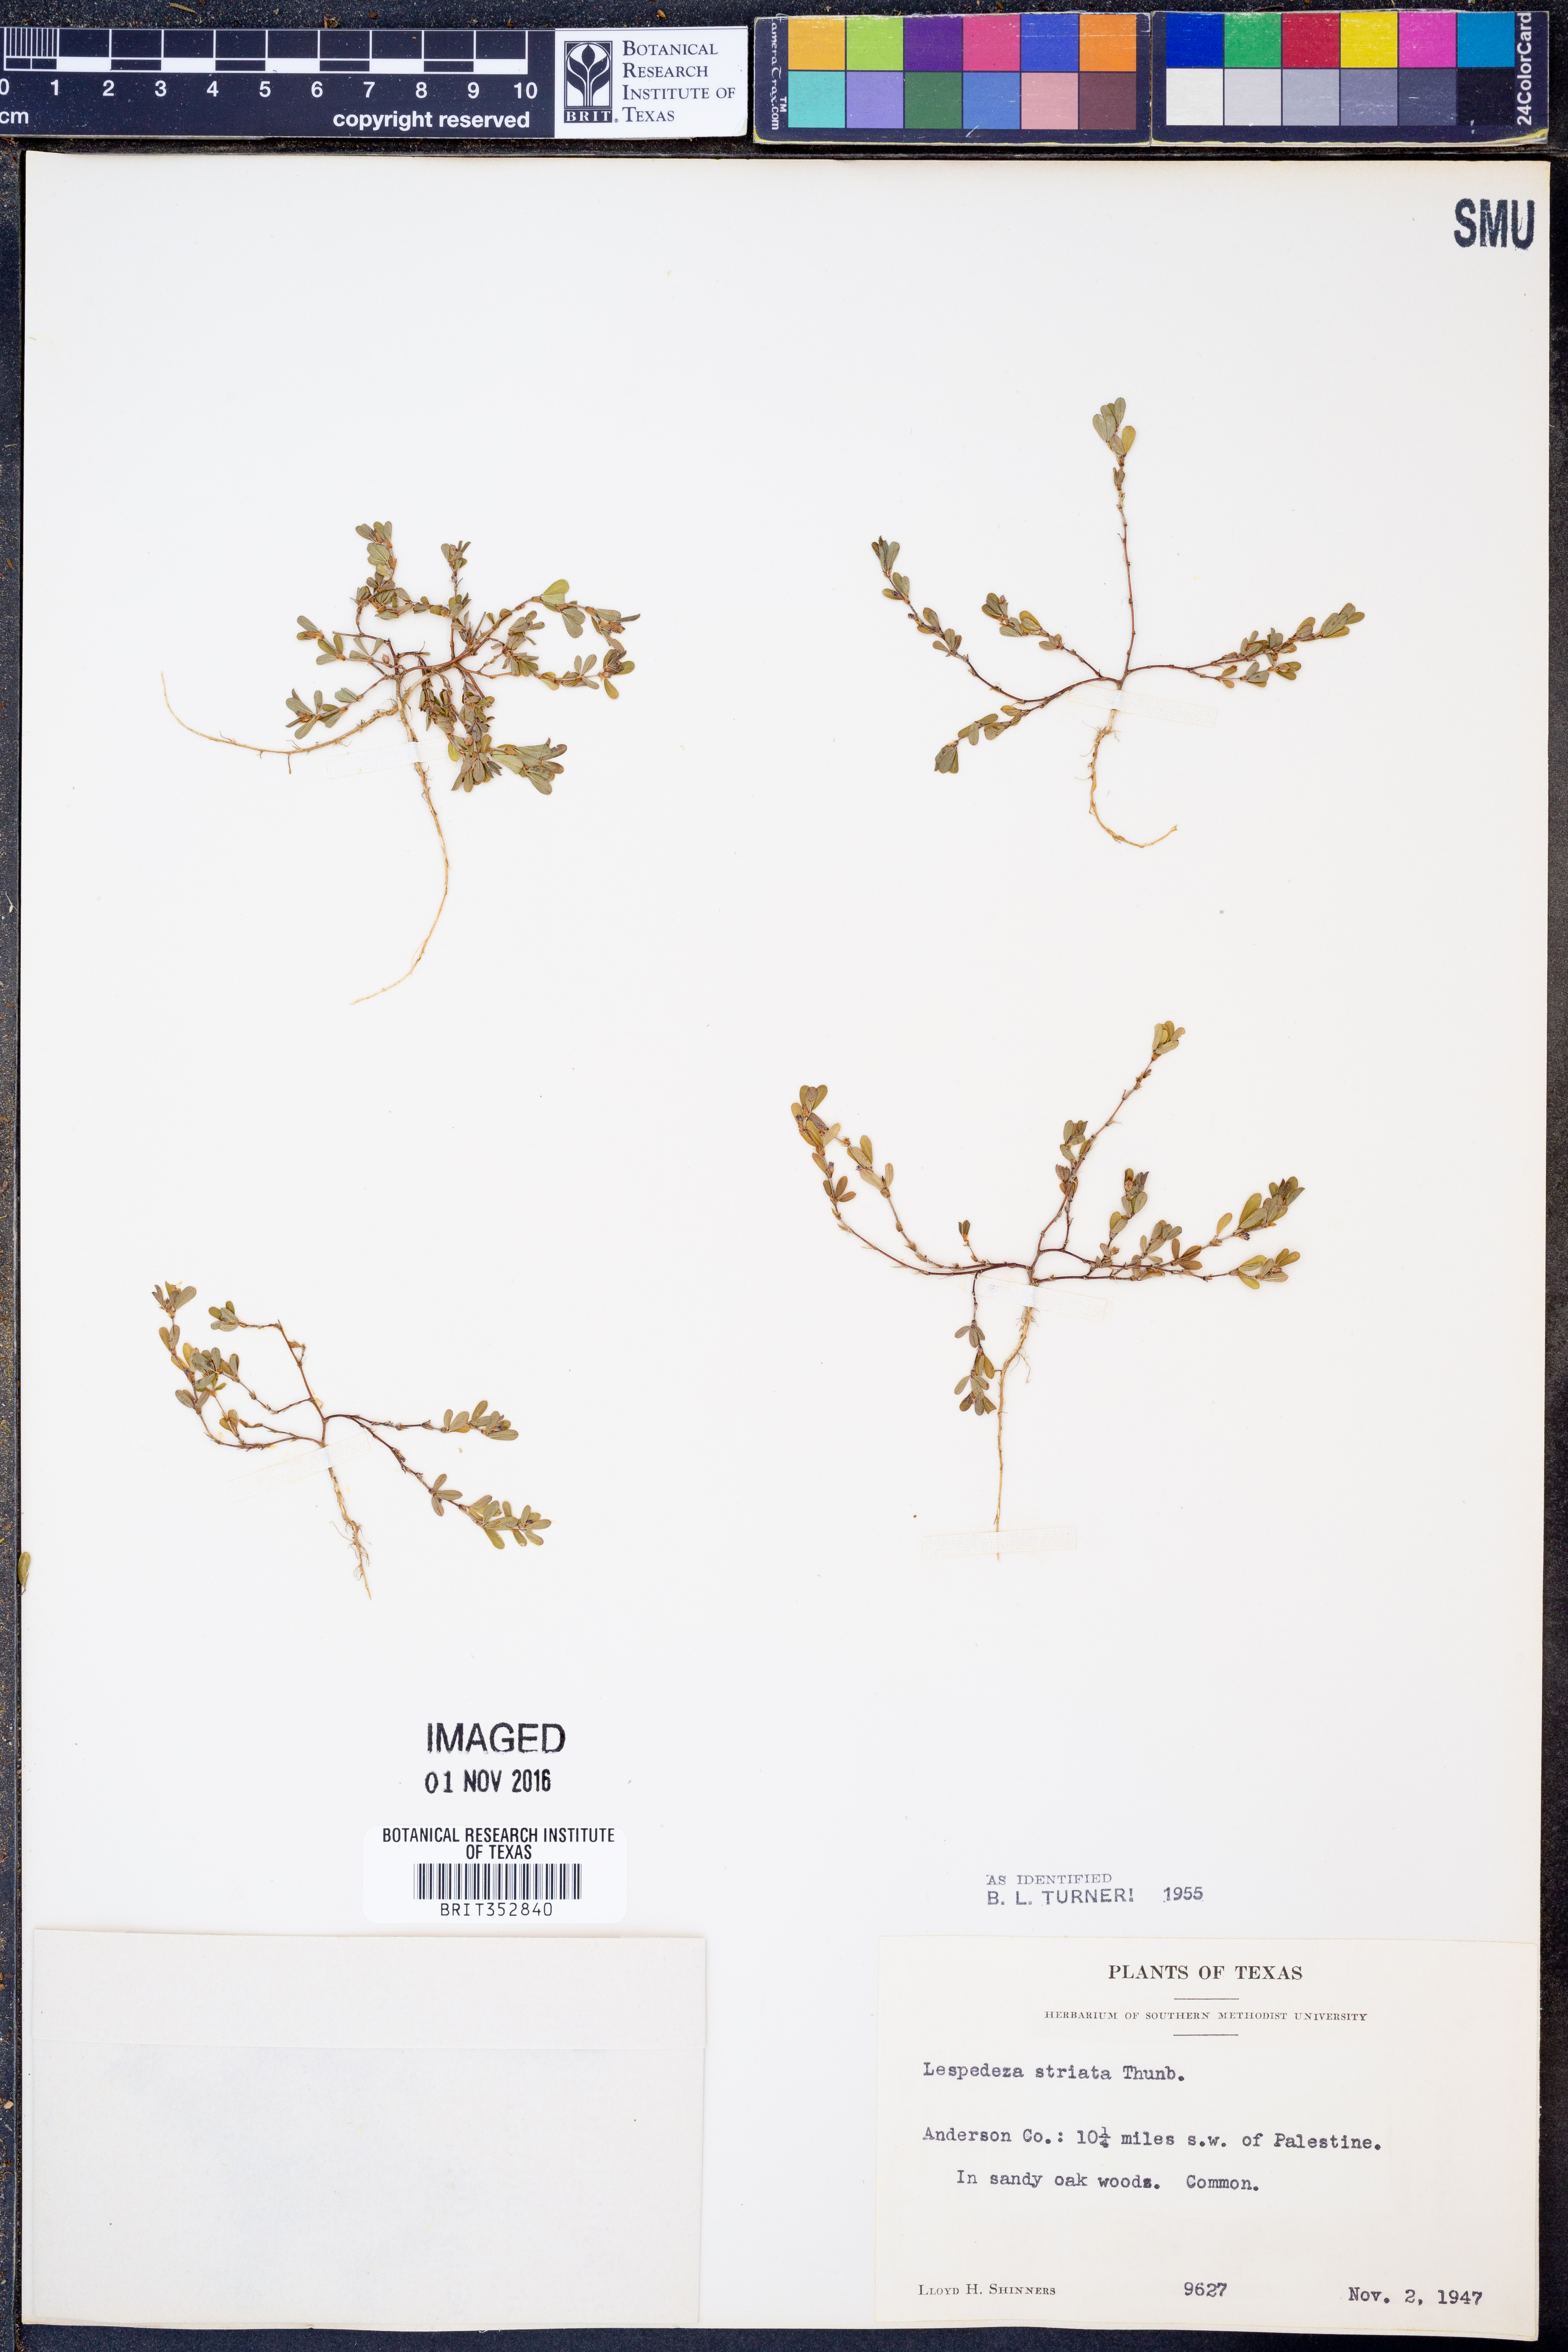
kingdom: Plantae
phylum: Tracheophyta
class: Magnoliopsida
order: Fabales
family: Fabaceae
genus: Kummerowia
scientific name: Kummerowia striata
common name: Japanese clover
